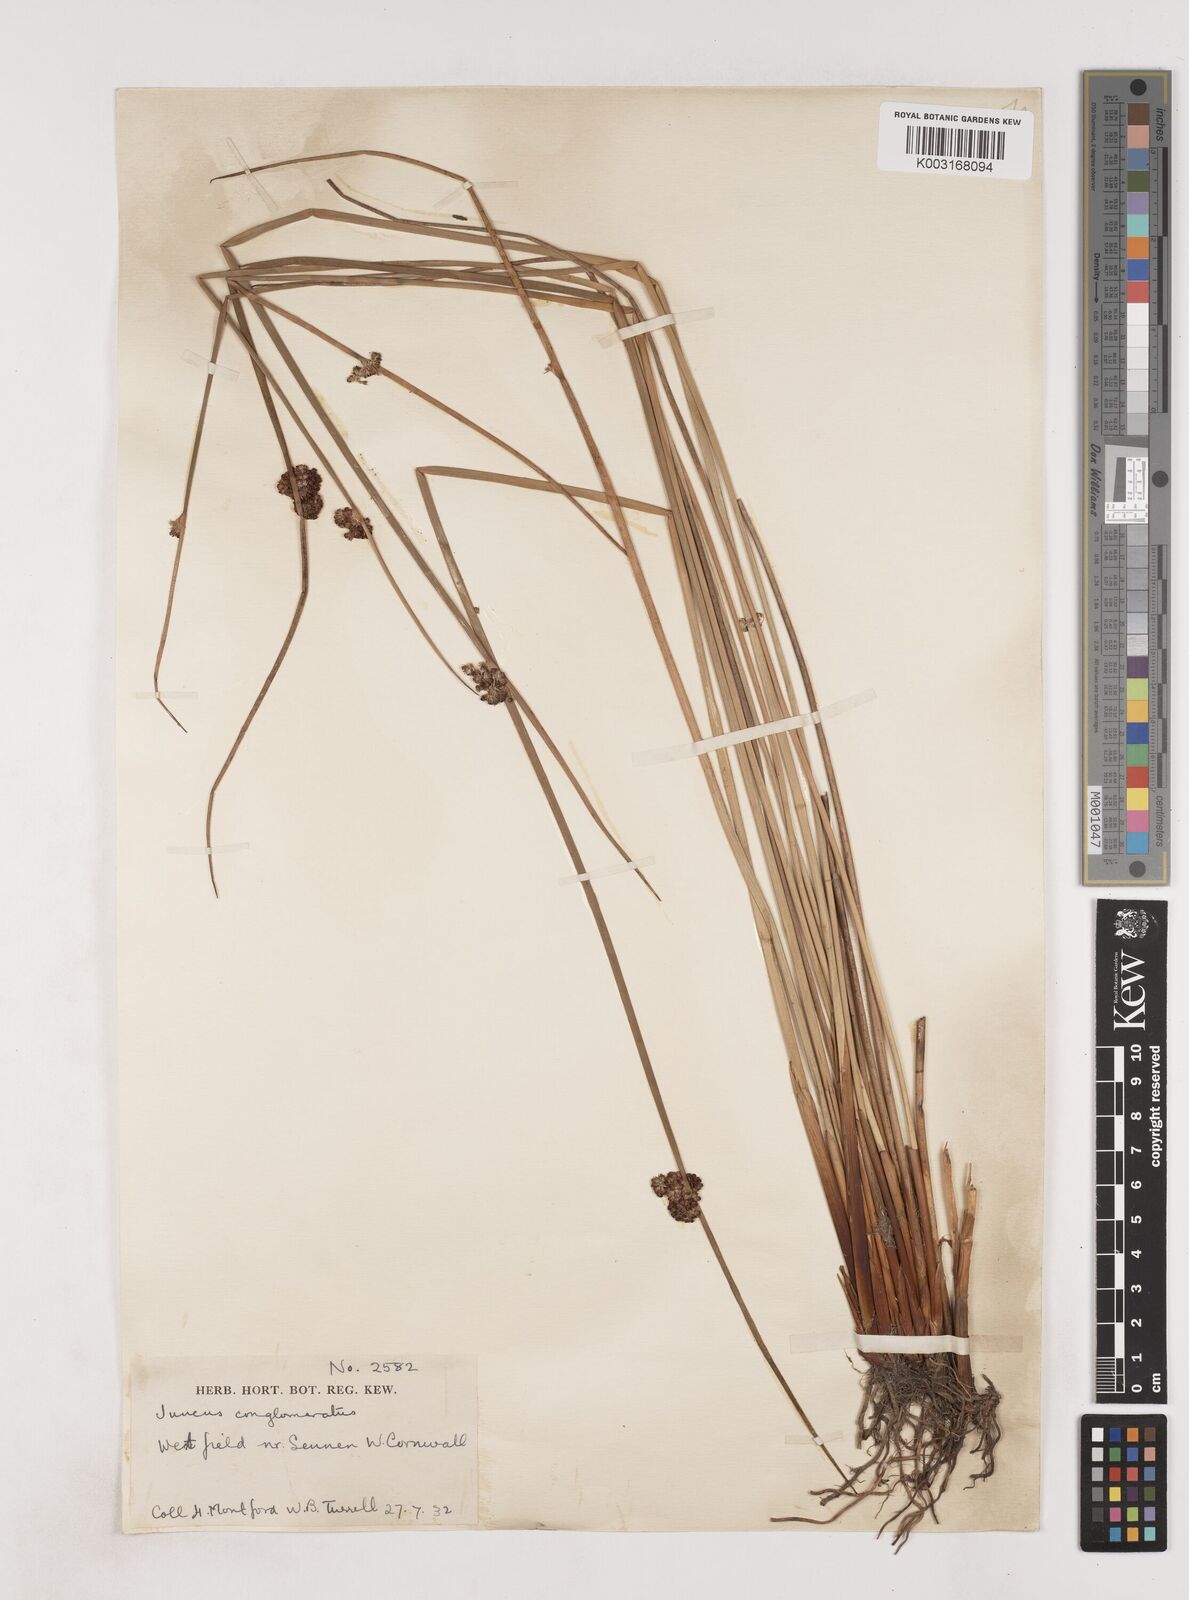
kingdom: Plantae
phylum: Tracheophyta
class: Liliopsida
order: Poales
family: Juncaceae
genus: Juncus
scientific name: Juncus conglomeratus
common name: Compact rush
